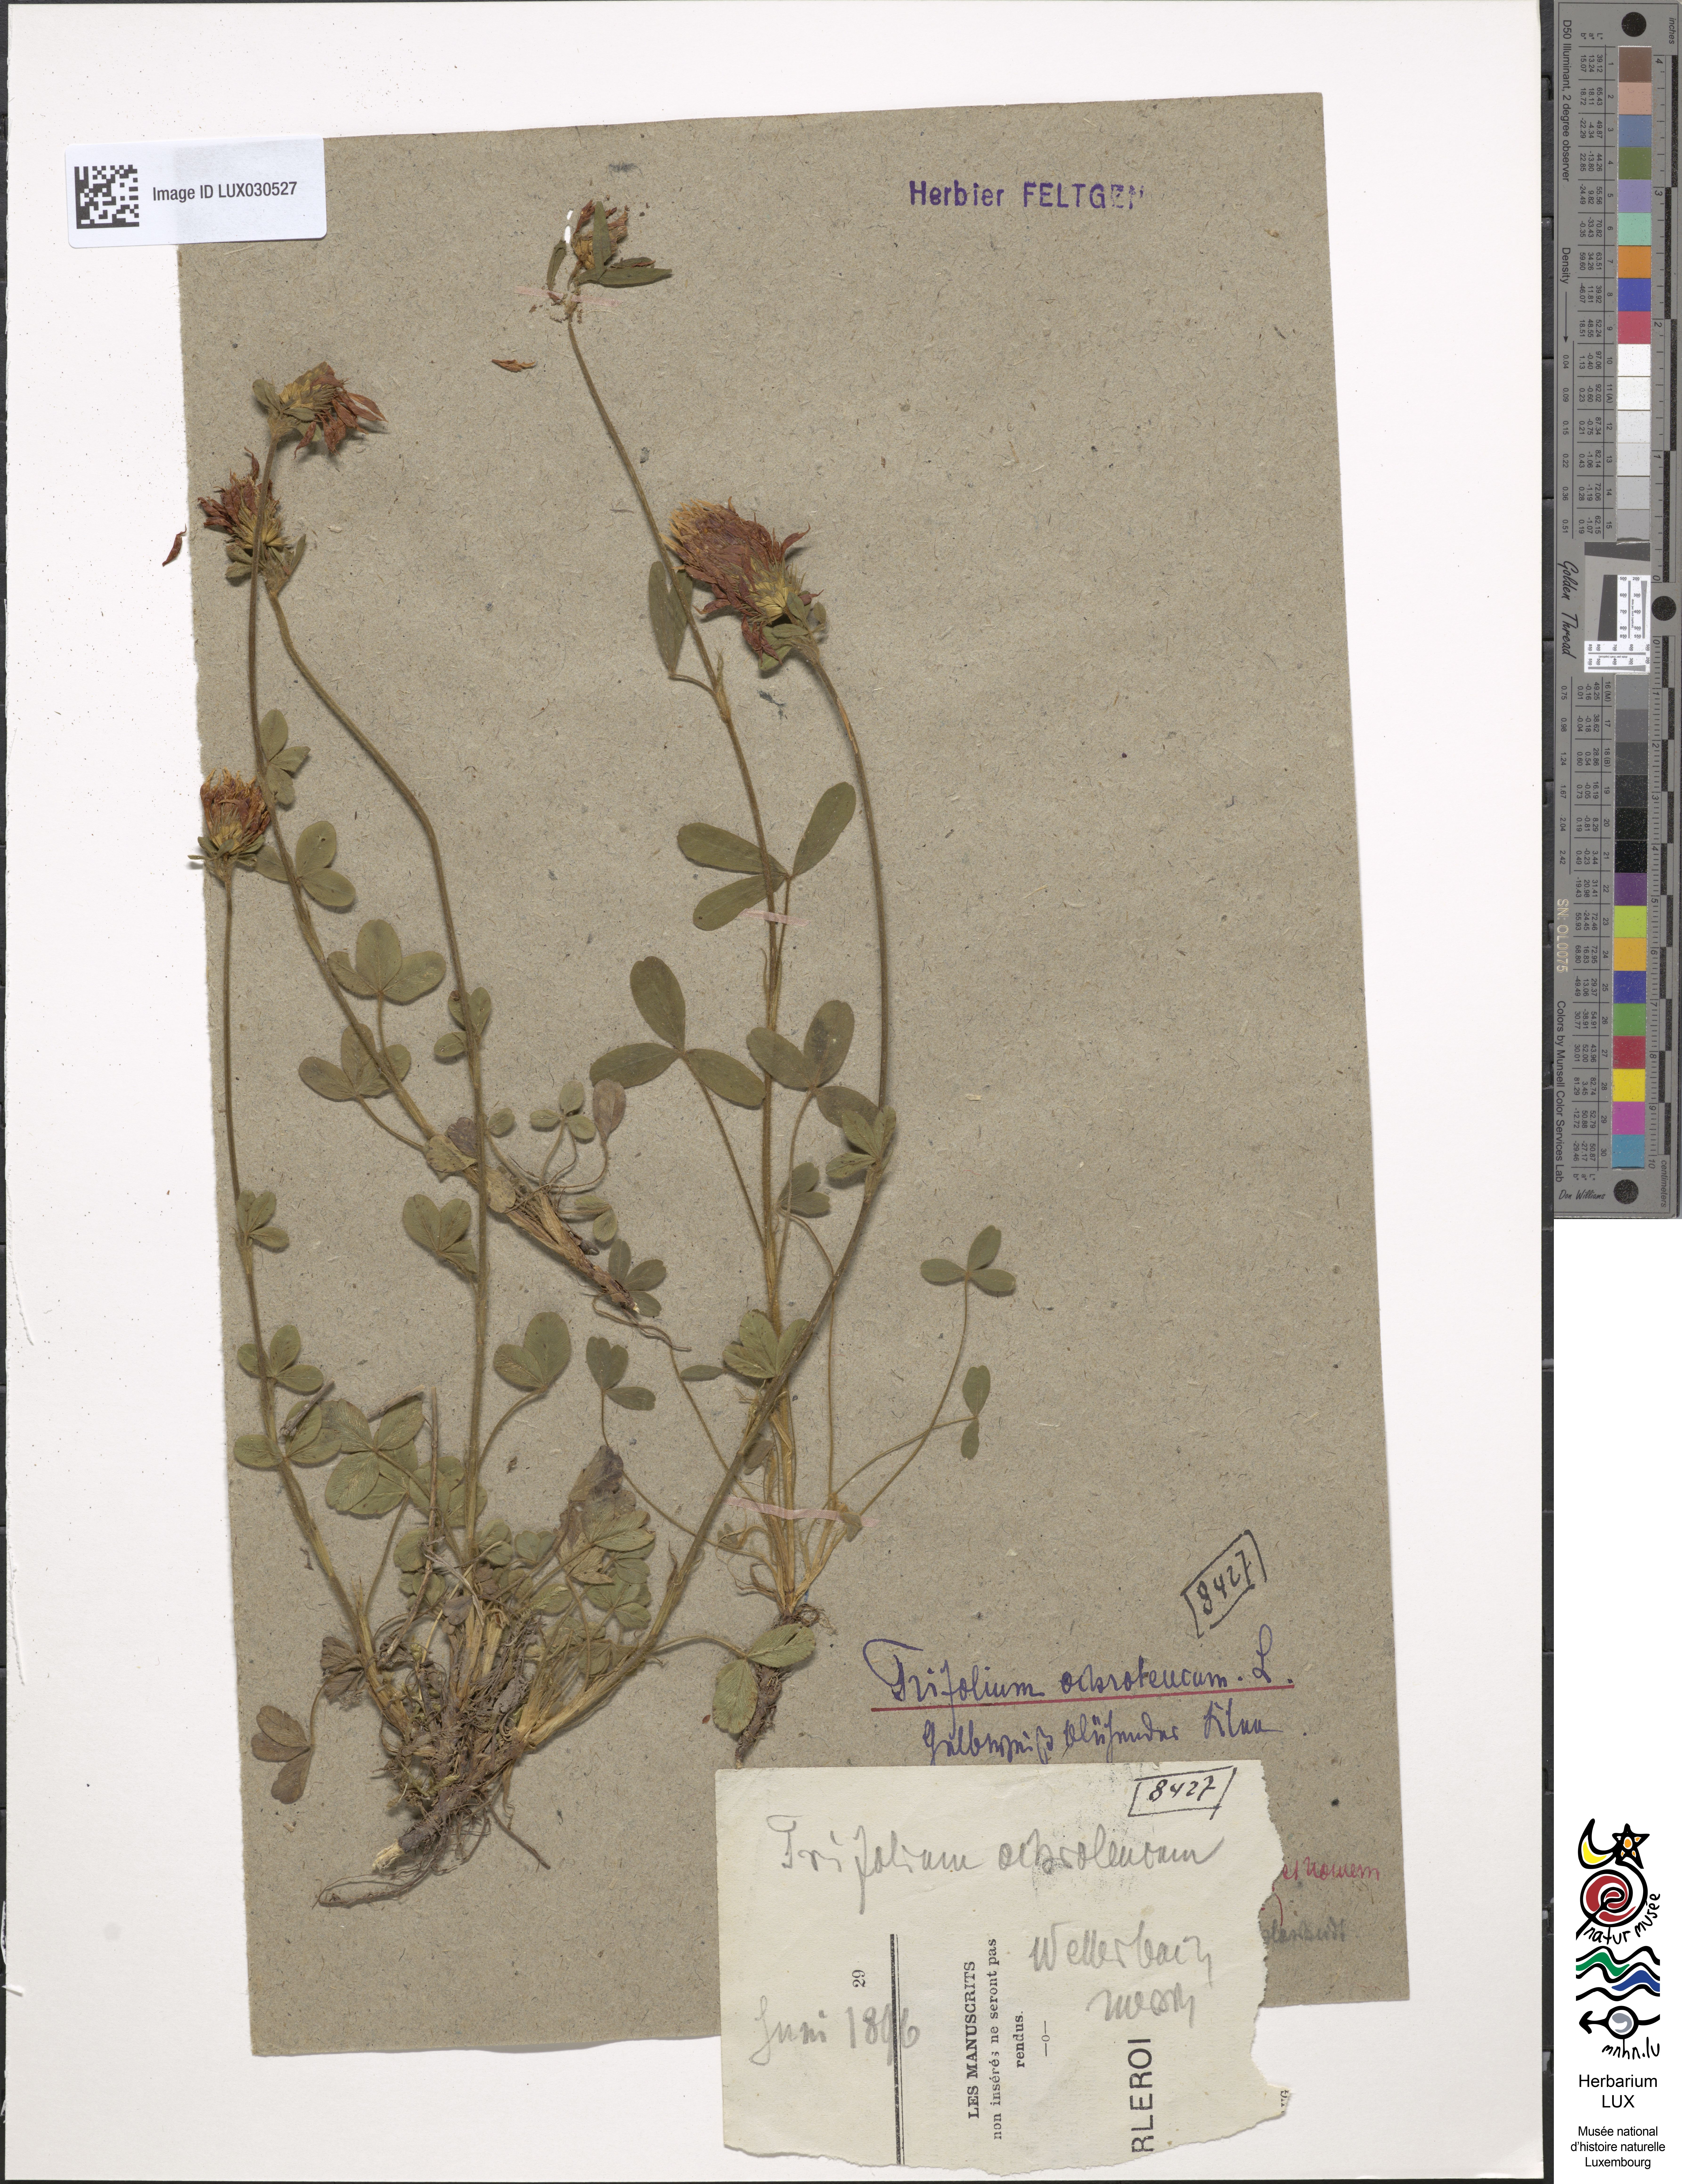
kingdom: Plantae
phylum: Tracheophyta
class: Magnoliopsida
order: Fabales
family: Fabaceae
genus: Trifolium
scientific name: Trifolium ochroleucon
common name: Sulphur clover
